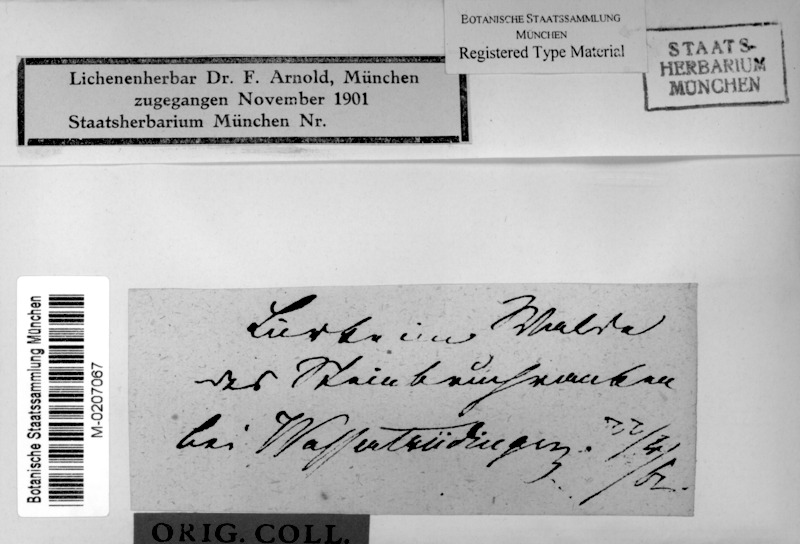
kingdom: Fungi
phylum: Ascomycota
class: Dothideomycetes
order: Trypetheliales
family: Trypetheliaceae
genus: Arthopyrenia
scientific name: Arthopyrenia fallaciosa
